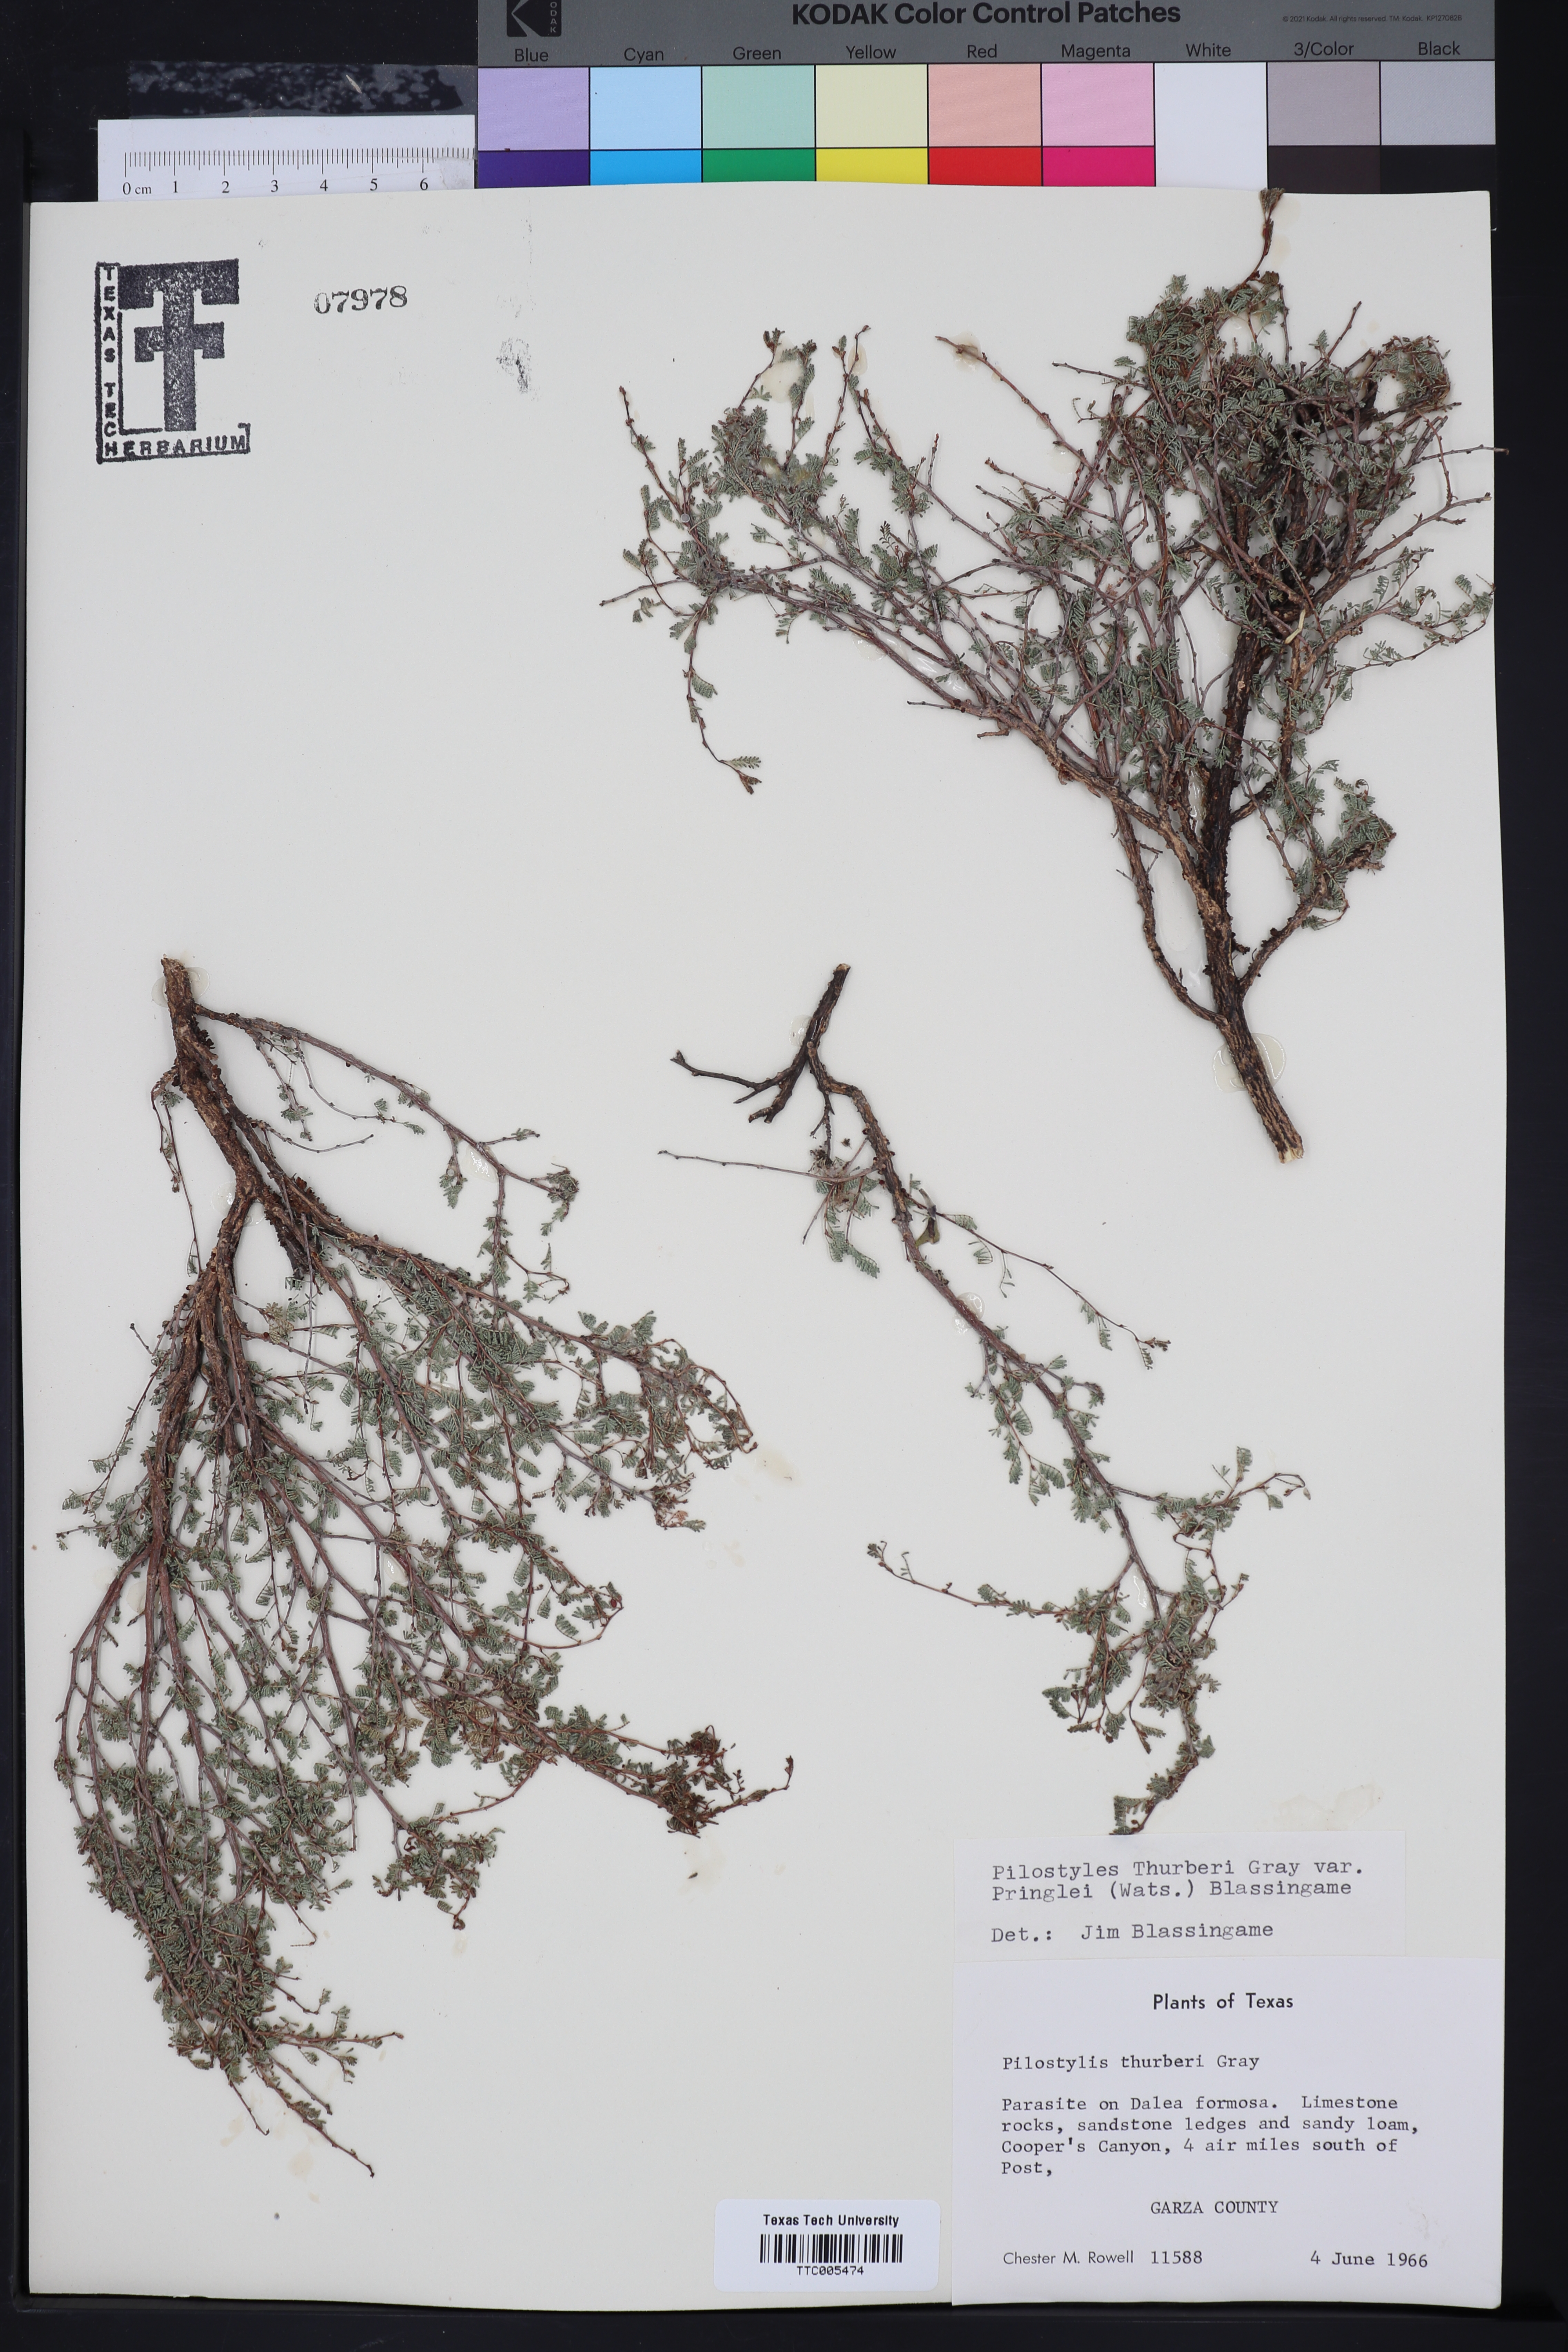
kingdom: Plantae
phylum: Tracheophyta
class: Magnoliopsida
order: Cucurbitales
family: Apodanthaceae
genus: Pilostyles
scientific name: Pilostyles thurberi
